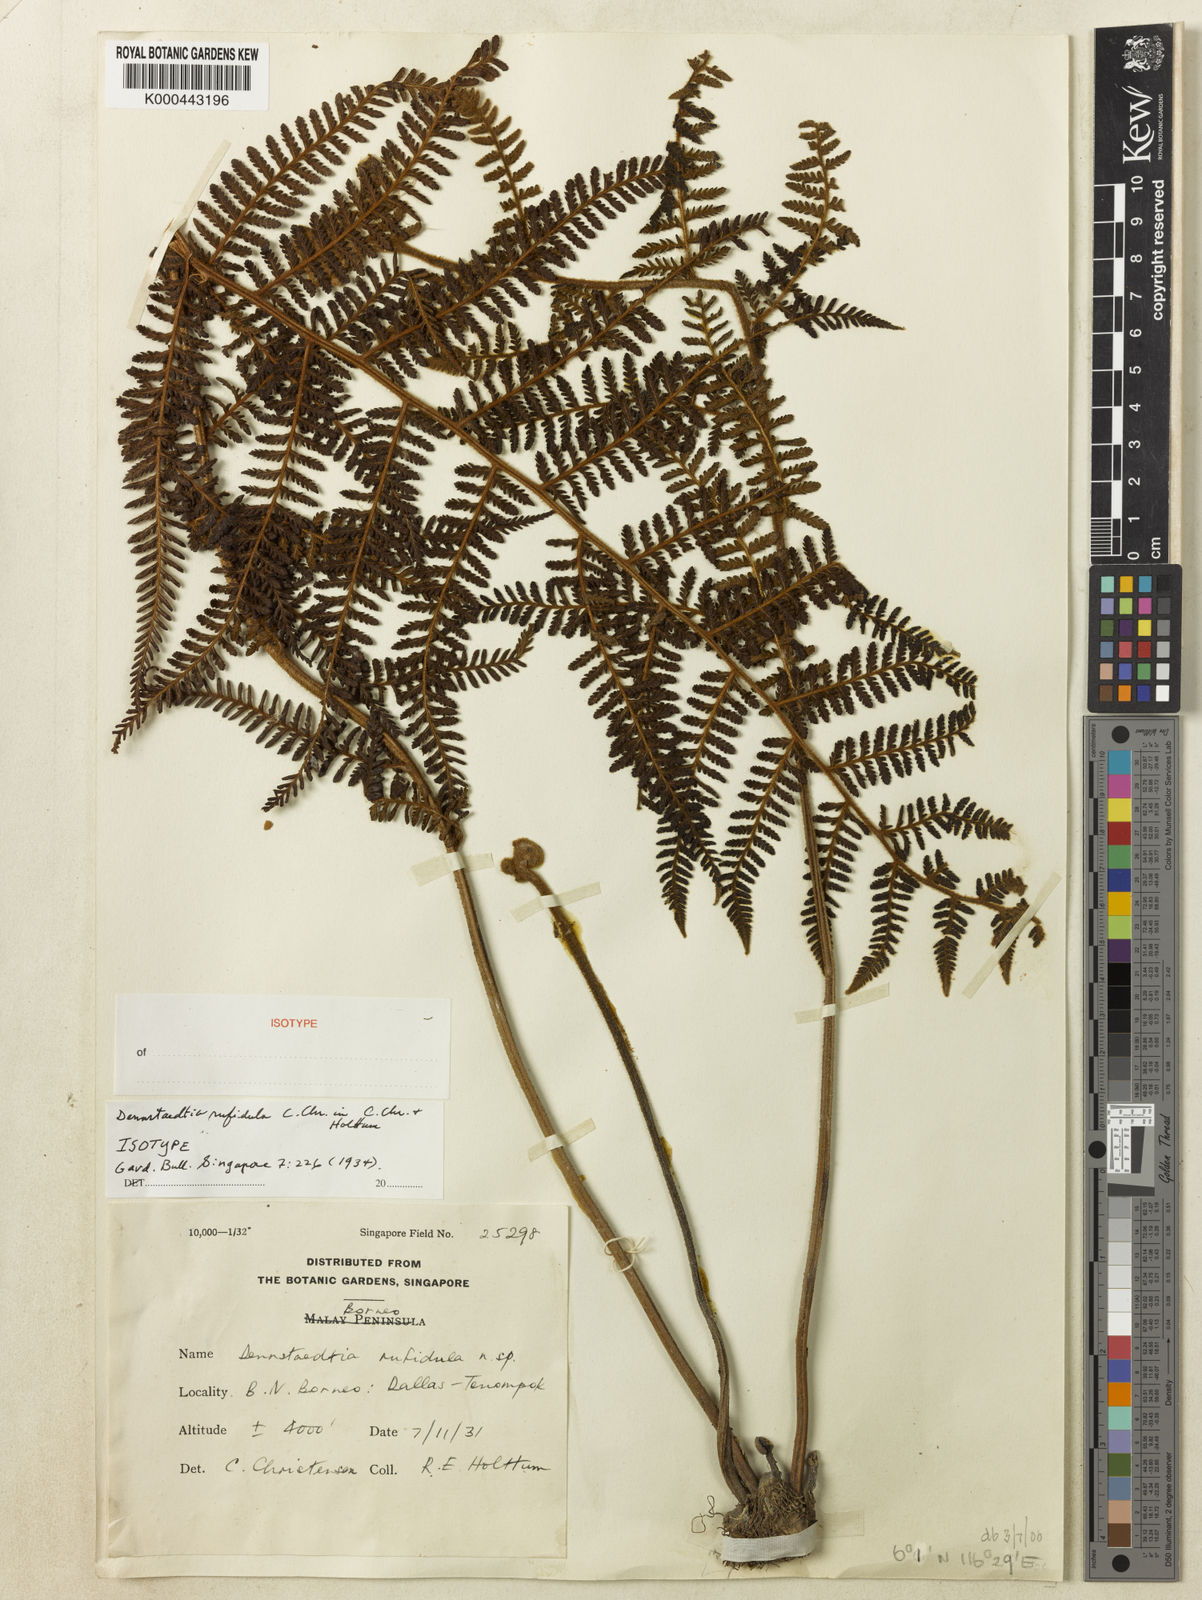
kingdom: Plantae
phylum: Tracheophyta
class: Polypodiopsida
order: Polypodiales
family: Dennstaedtiaceae
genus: Dennstaedtia
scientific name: Dennstaedtia rufidula
